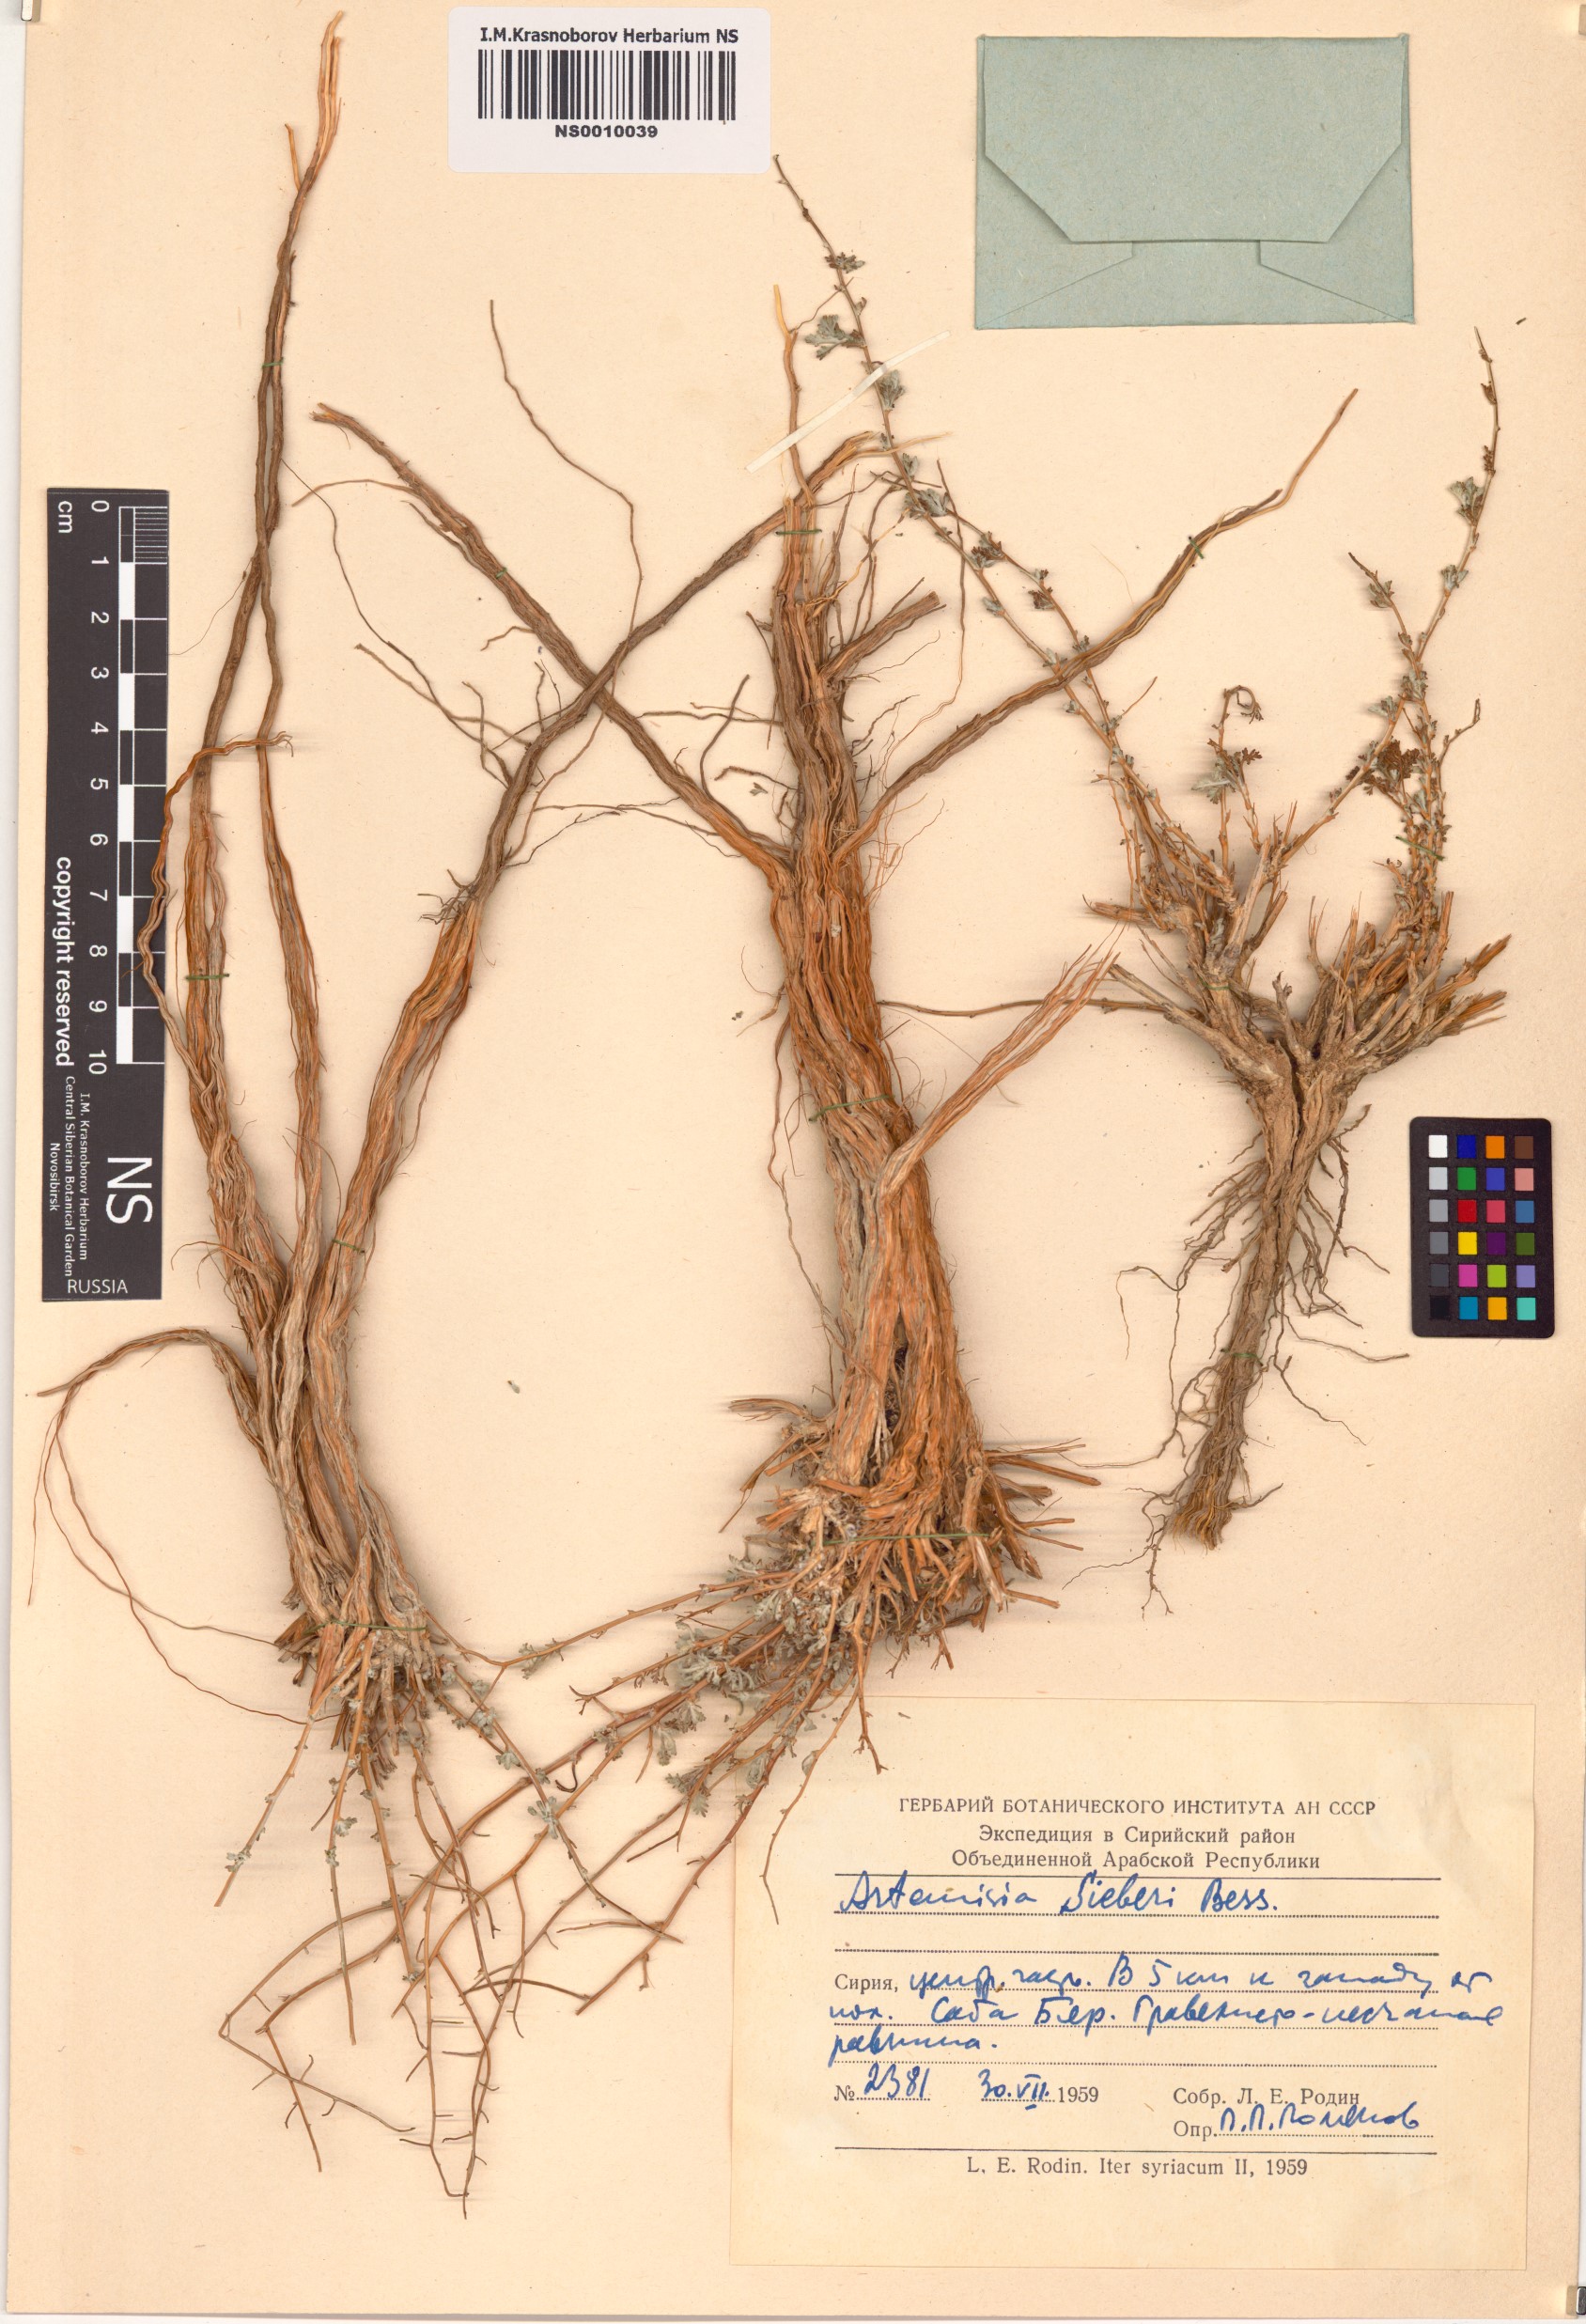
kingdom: Plantae
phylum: Tracheophyta
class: Magnoliopsida
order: Asterales
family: Asteraceae
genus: Artemisia
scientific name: Artemisia sieberi
